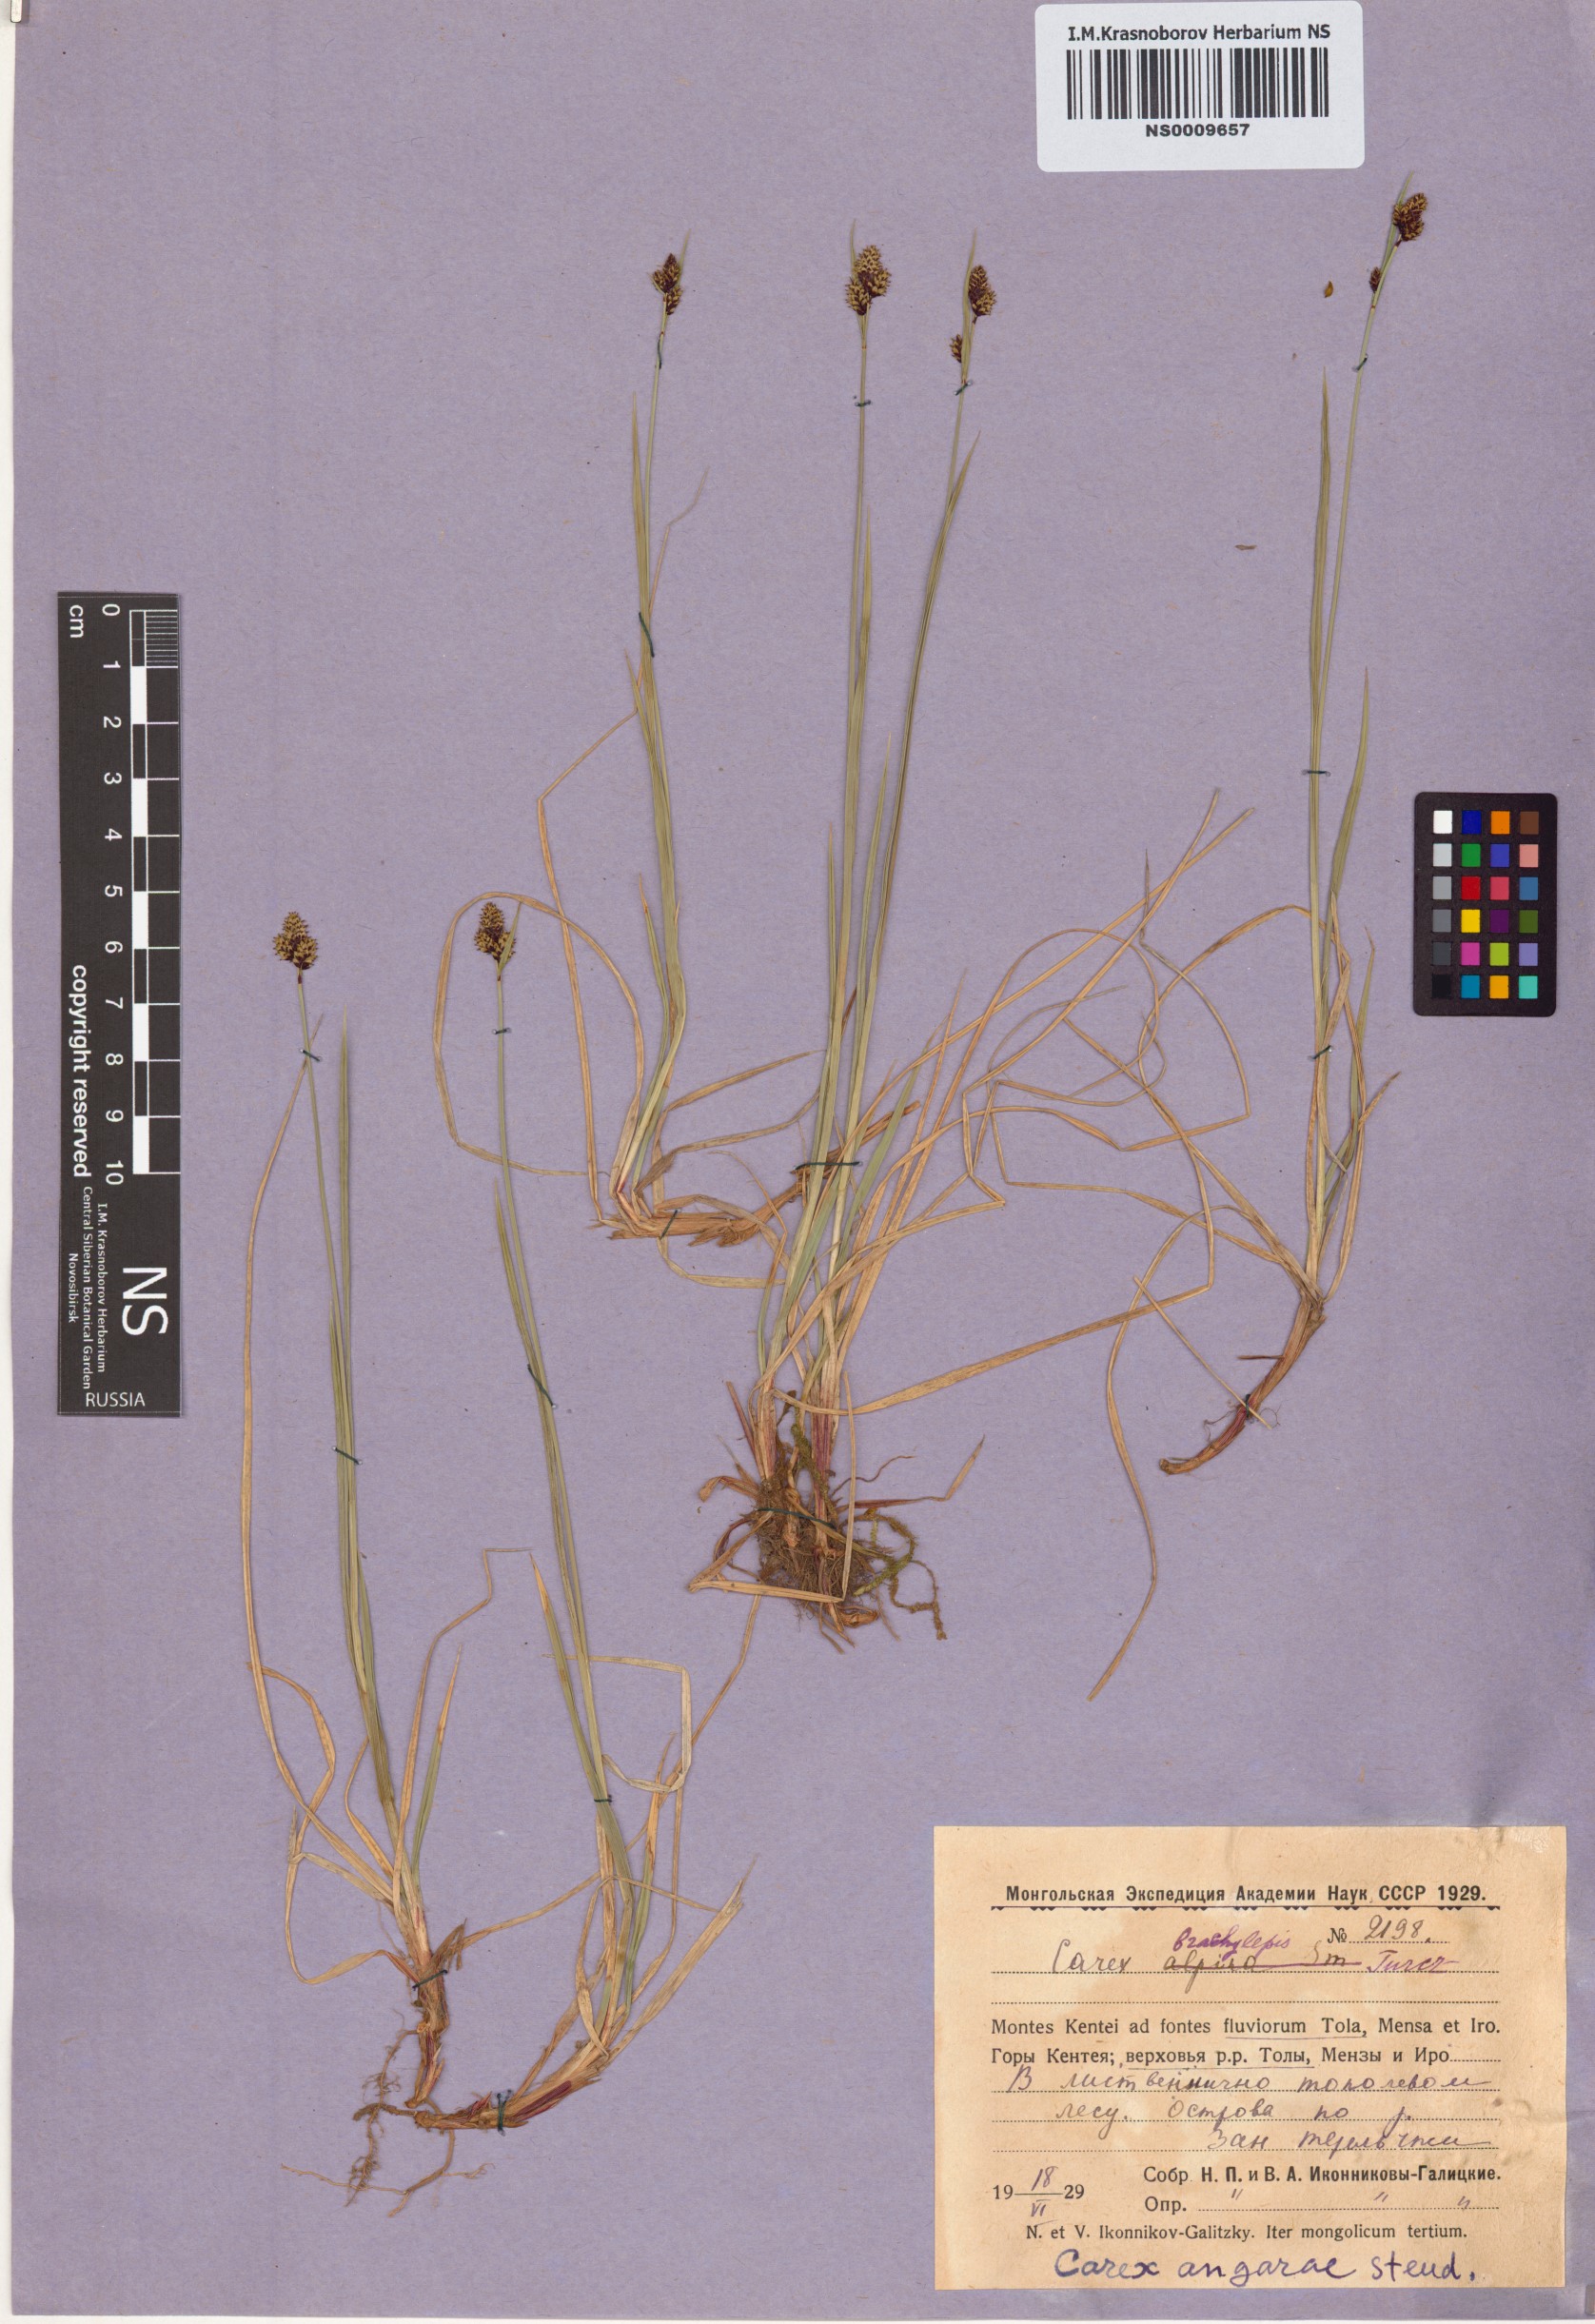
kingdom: Plantae
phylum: Tracheophyta
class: Liliopsida
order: Poales
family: Cyperaceae
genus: Carex
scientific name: Carex media
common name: Alpine sedge
